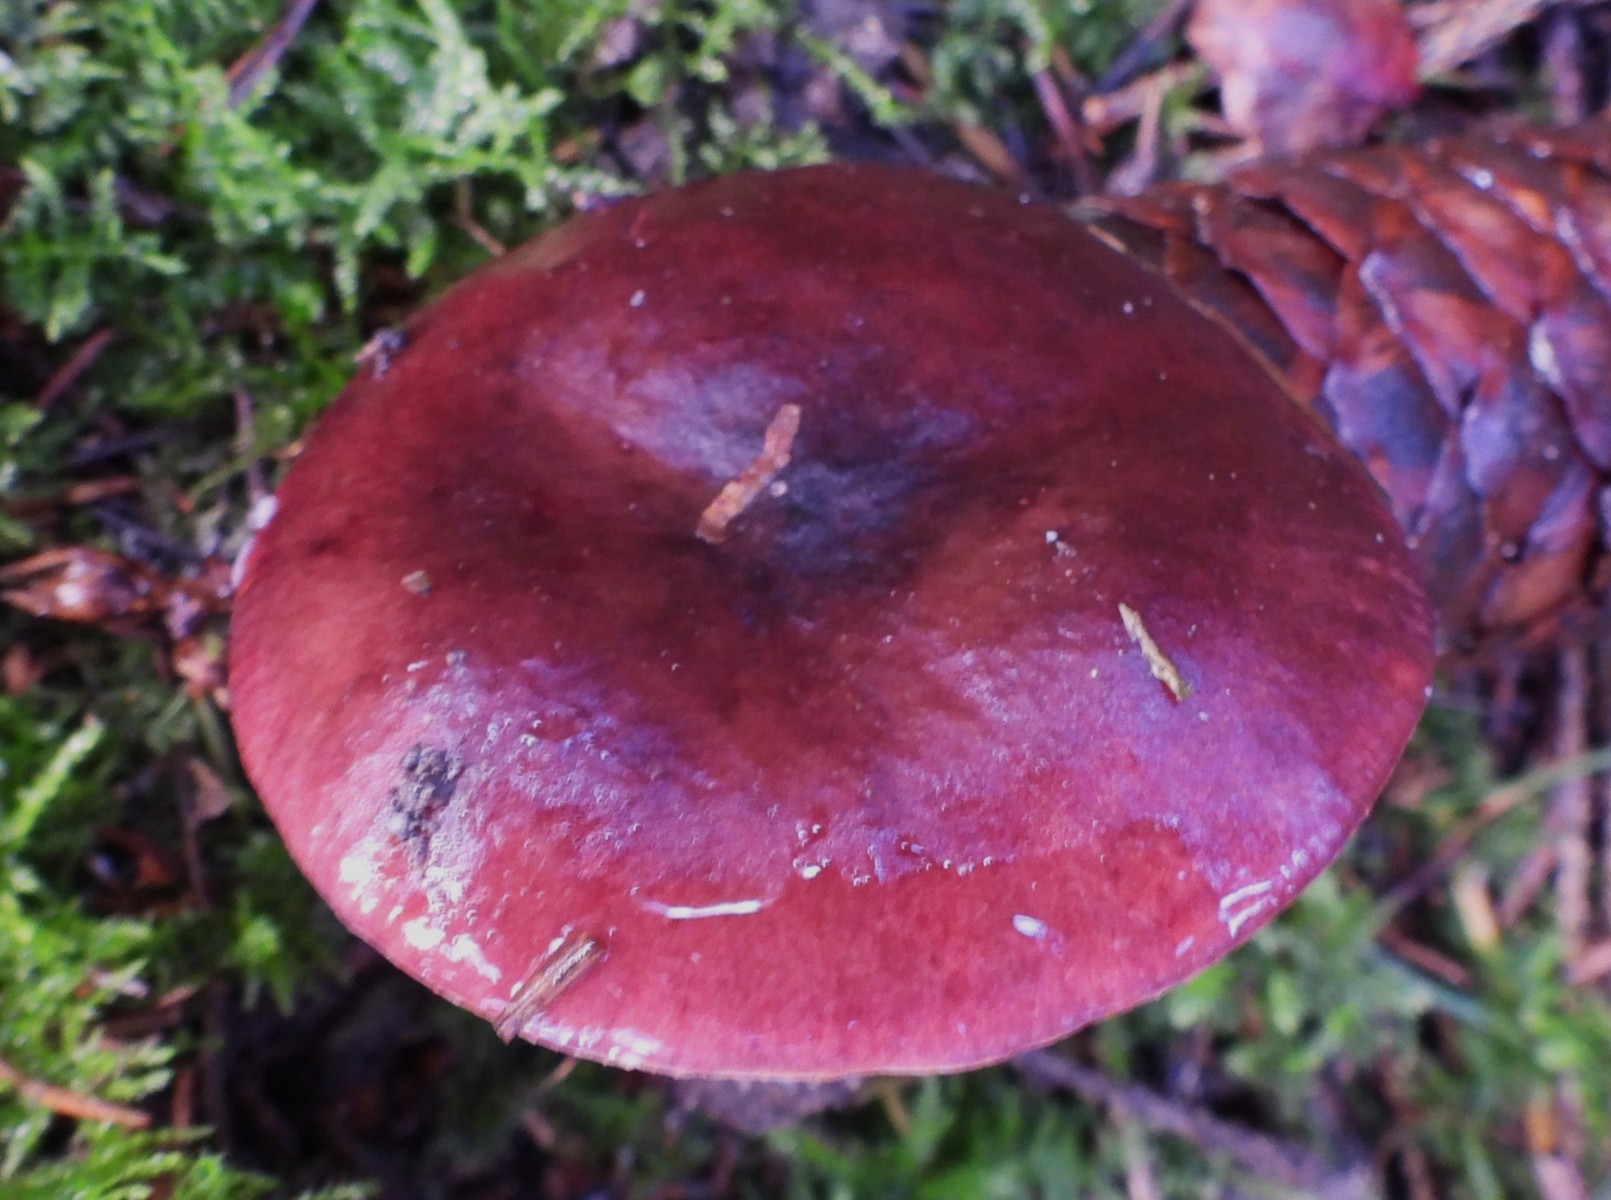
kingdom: Fungi
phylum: Basidiomycota
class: Agaricomycetes
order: Russulales
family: Russulaceae
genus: Russula
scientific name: Russula queletii
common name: Quélets skørhat
